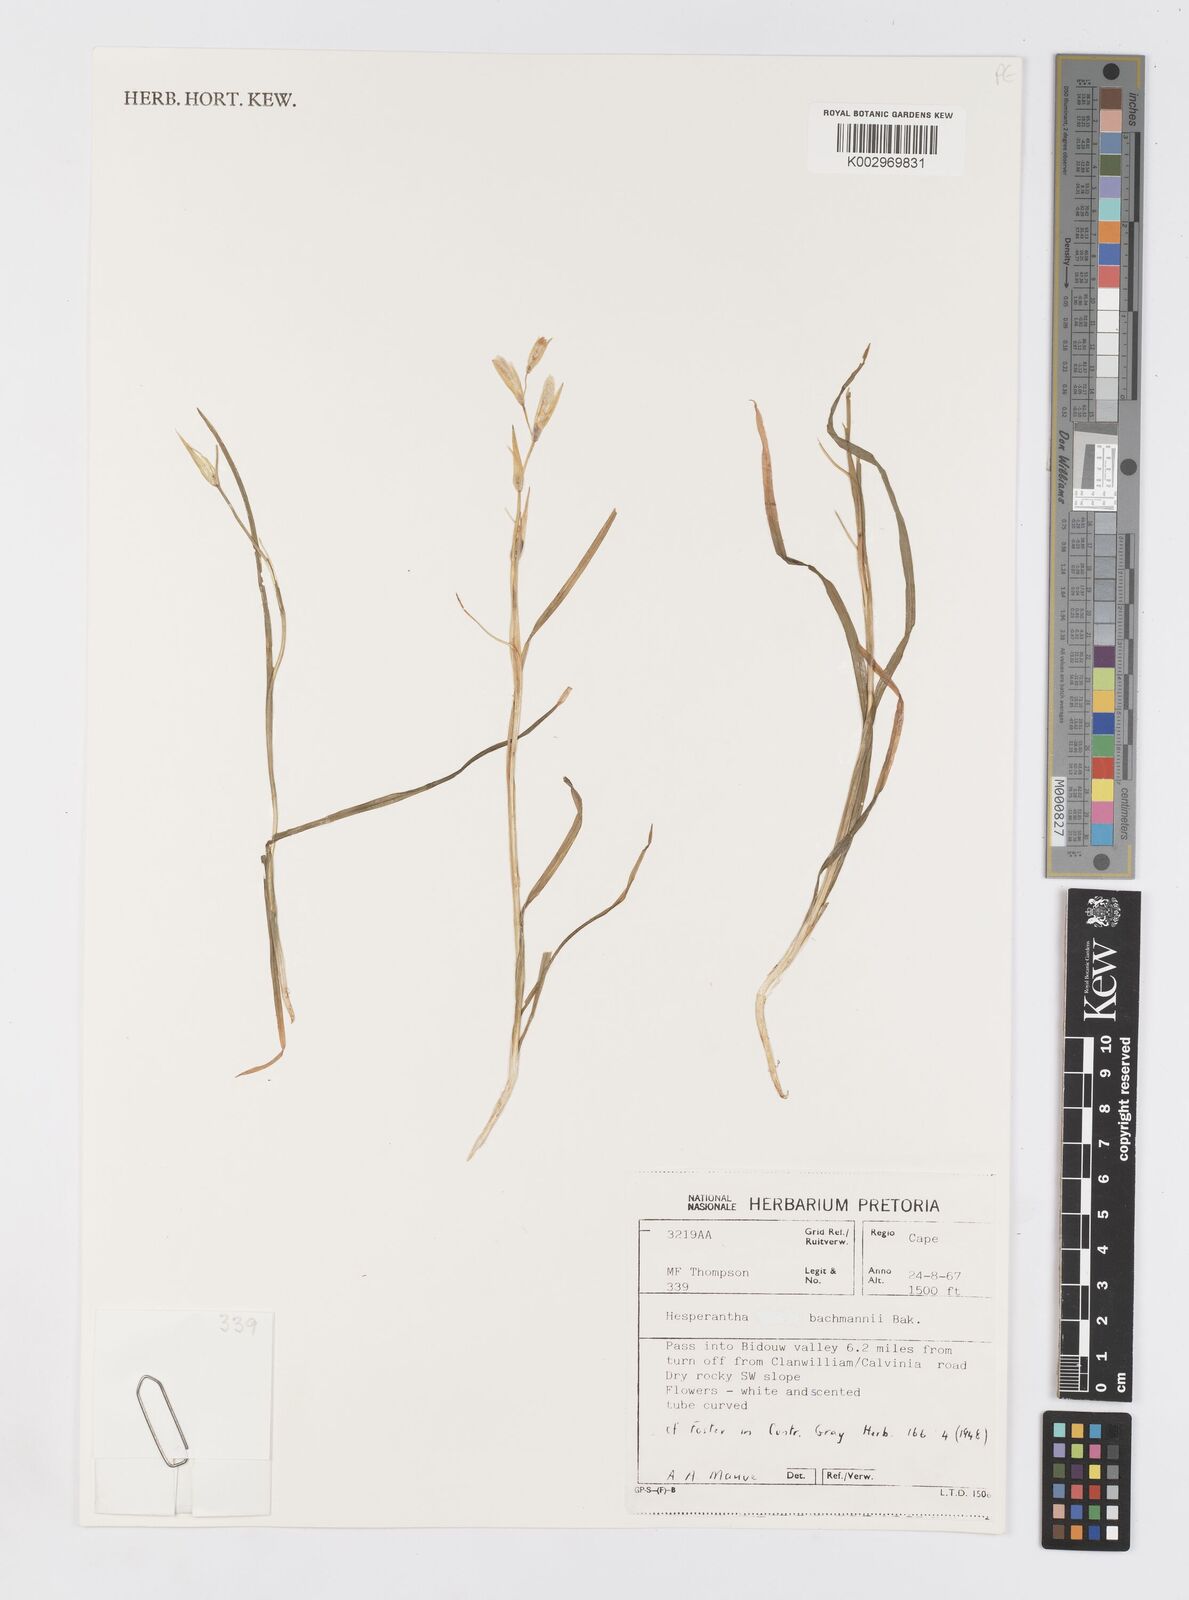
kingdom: Plantae
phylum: Tracheophyta
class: Liliopsida
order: Asparagales
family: Iridaceae
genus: Hesperantha
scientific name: Hesperantha bachmannii
